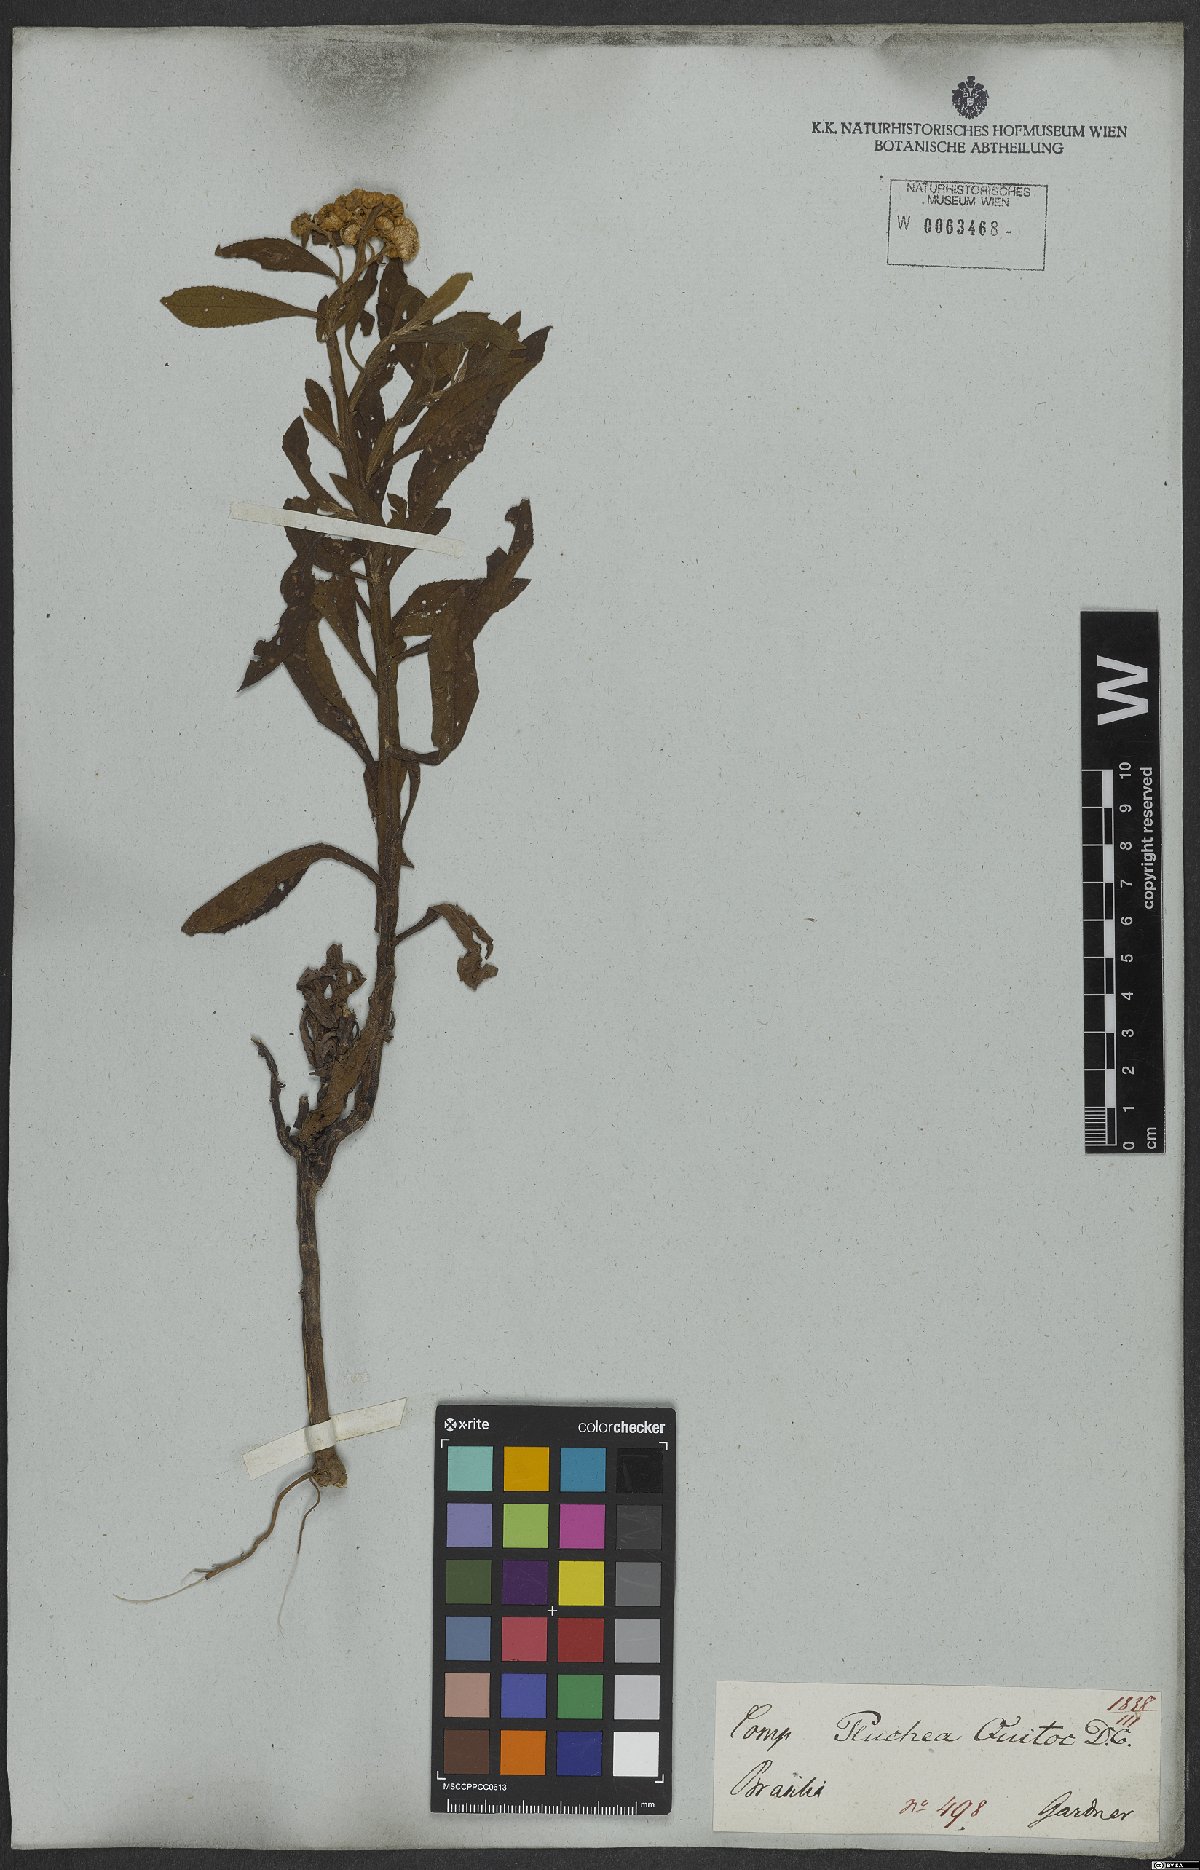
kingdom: Plantae
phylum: Tracheophyta
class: Magnoliopsida
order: Asterales
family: Asteraceae
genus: Pluchea
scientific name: Pluchea sagittalis
